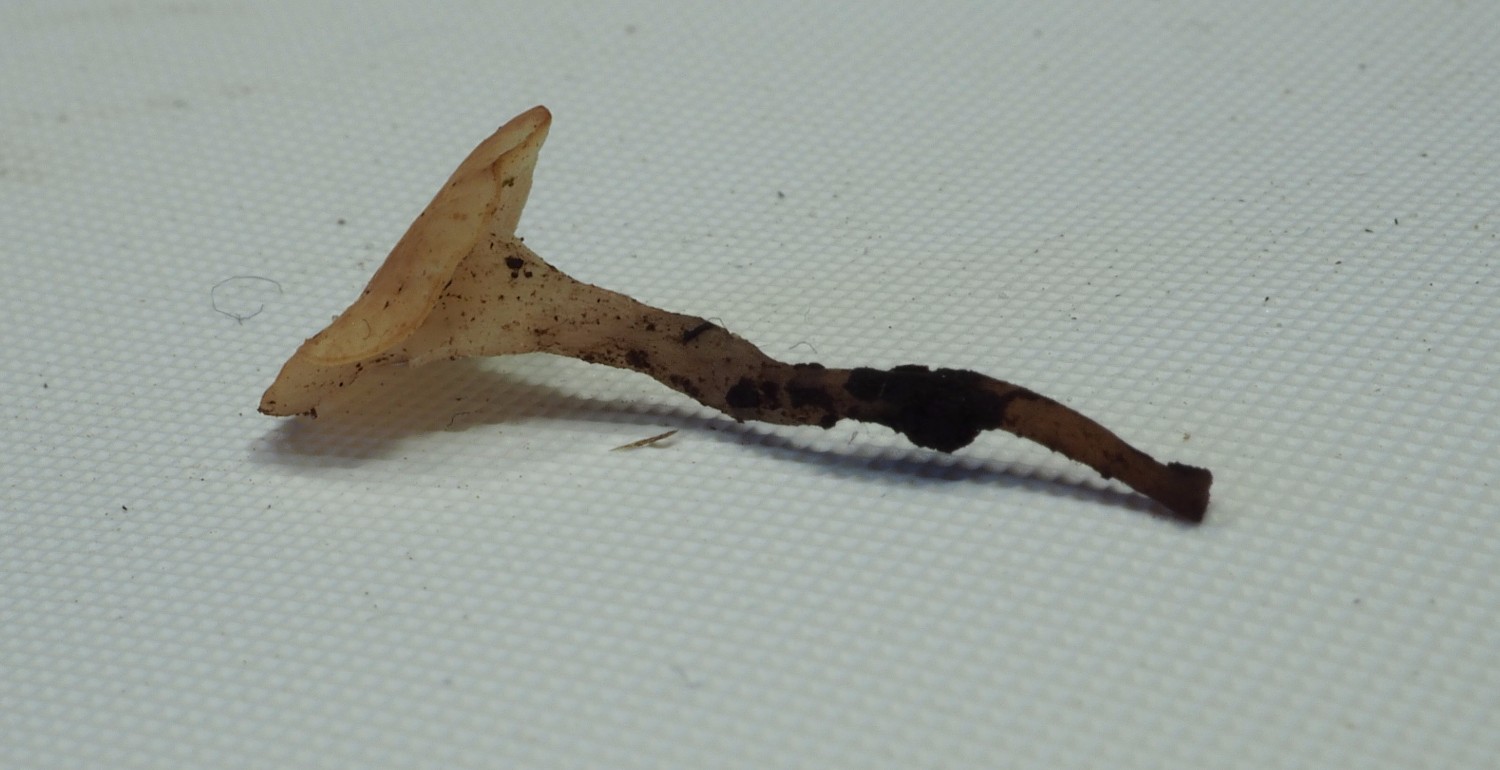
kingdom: Fungi
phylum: Ascomycota
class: Leotiomycetes
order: Helotiales
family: Helotiaceae
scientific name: Helotiaceae
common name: stilkskivefamilien
